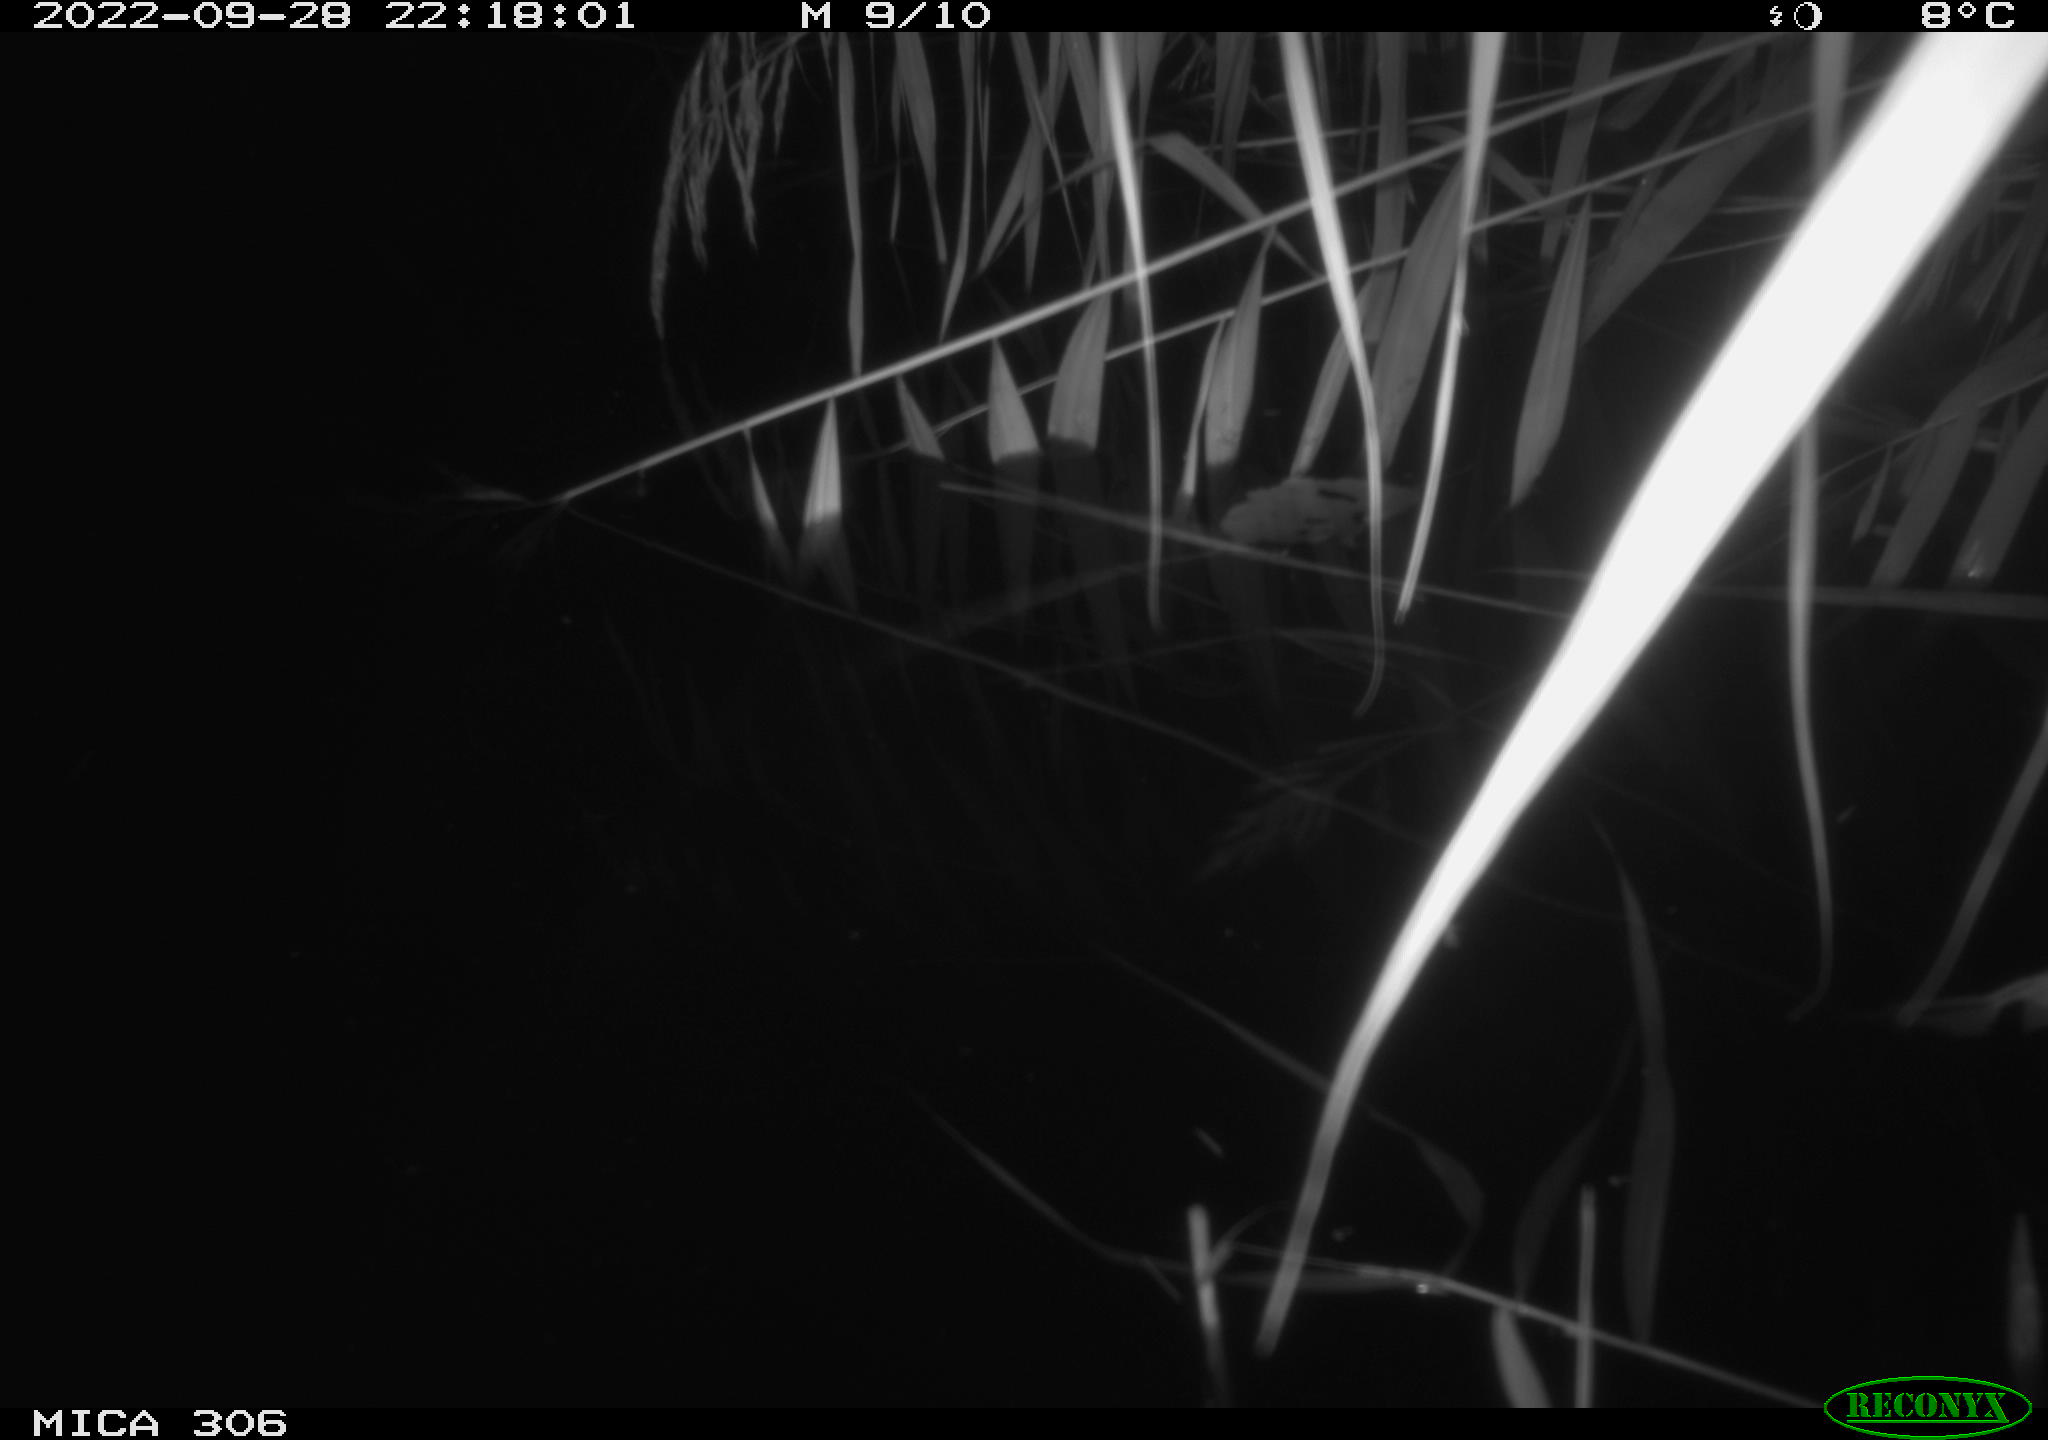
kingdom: Animalia
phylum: Chordata
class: Mammalia
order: Rodentia
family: Cricetidae
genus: Ondatra
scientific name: Ondatra zibethicus
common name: Muskrat
